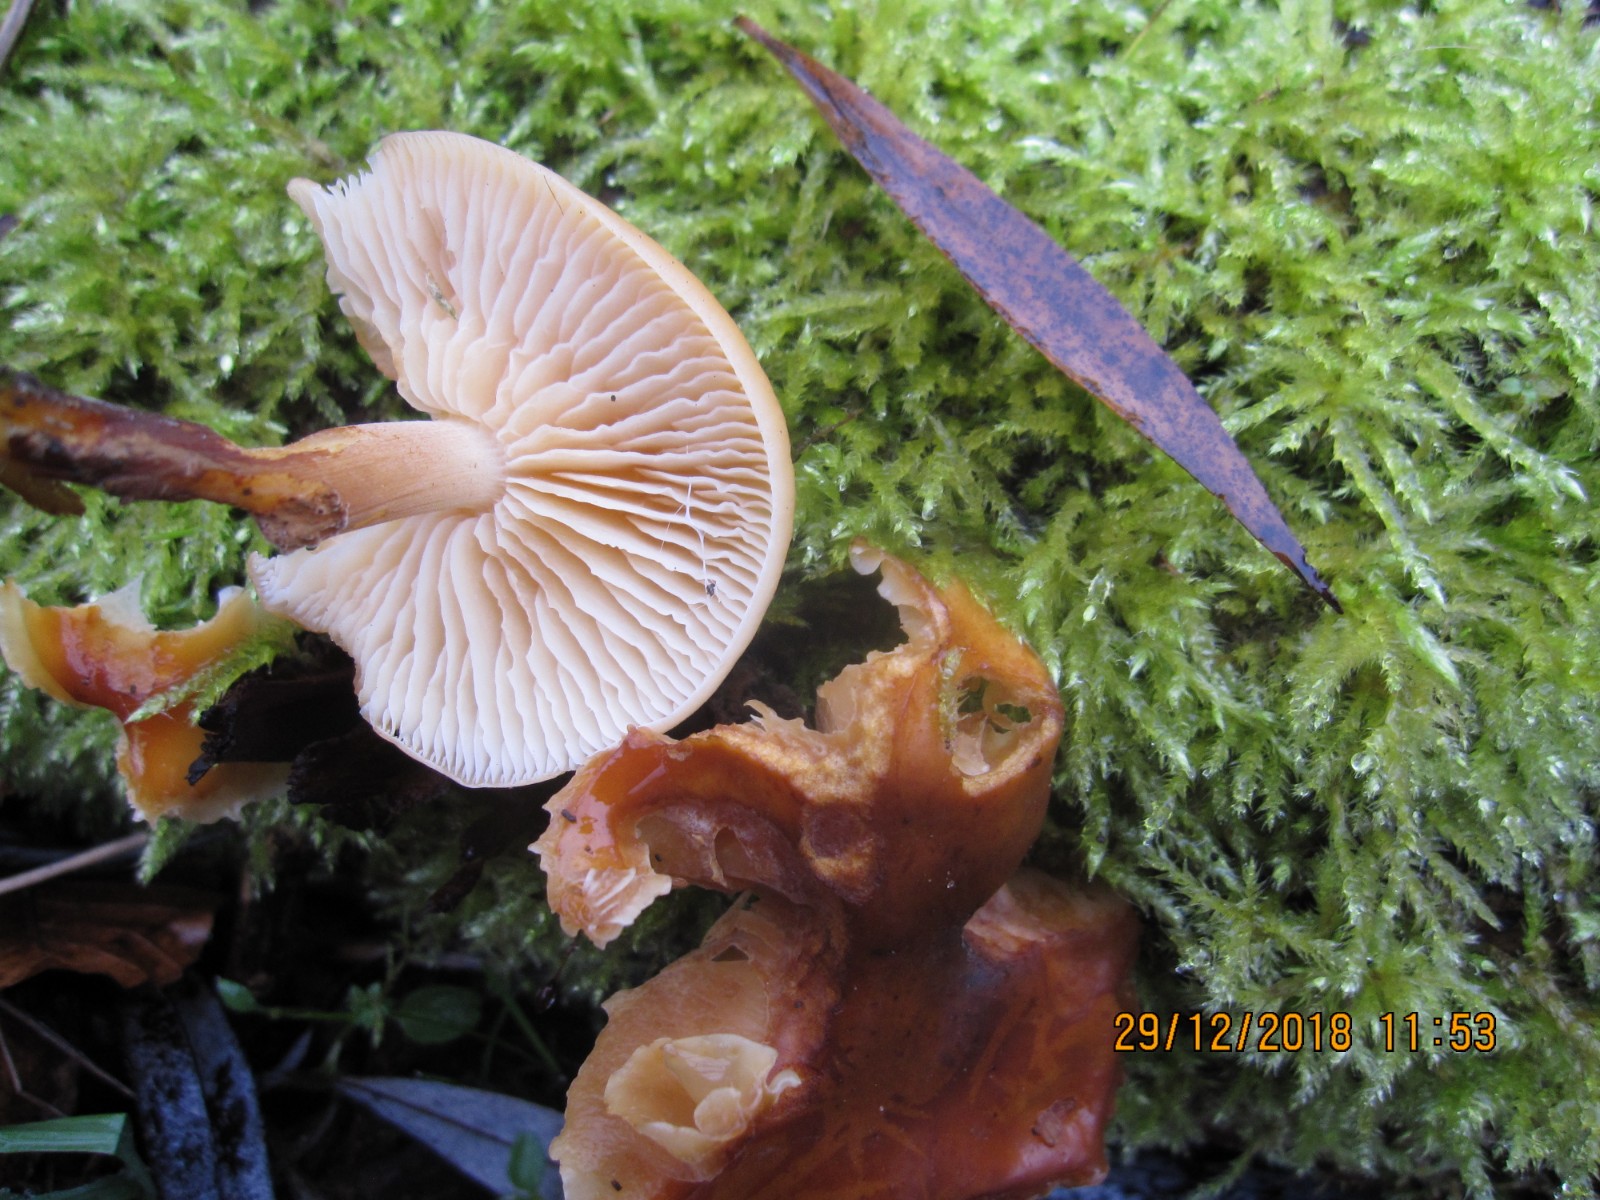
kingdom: Fungi
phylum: Basidiomycota
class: Agaricomycetes
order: Agaricales
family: Physalacriaceae
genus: Flammulina
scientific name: Flammulina elastica
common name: pile-fløjlsfod
